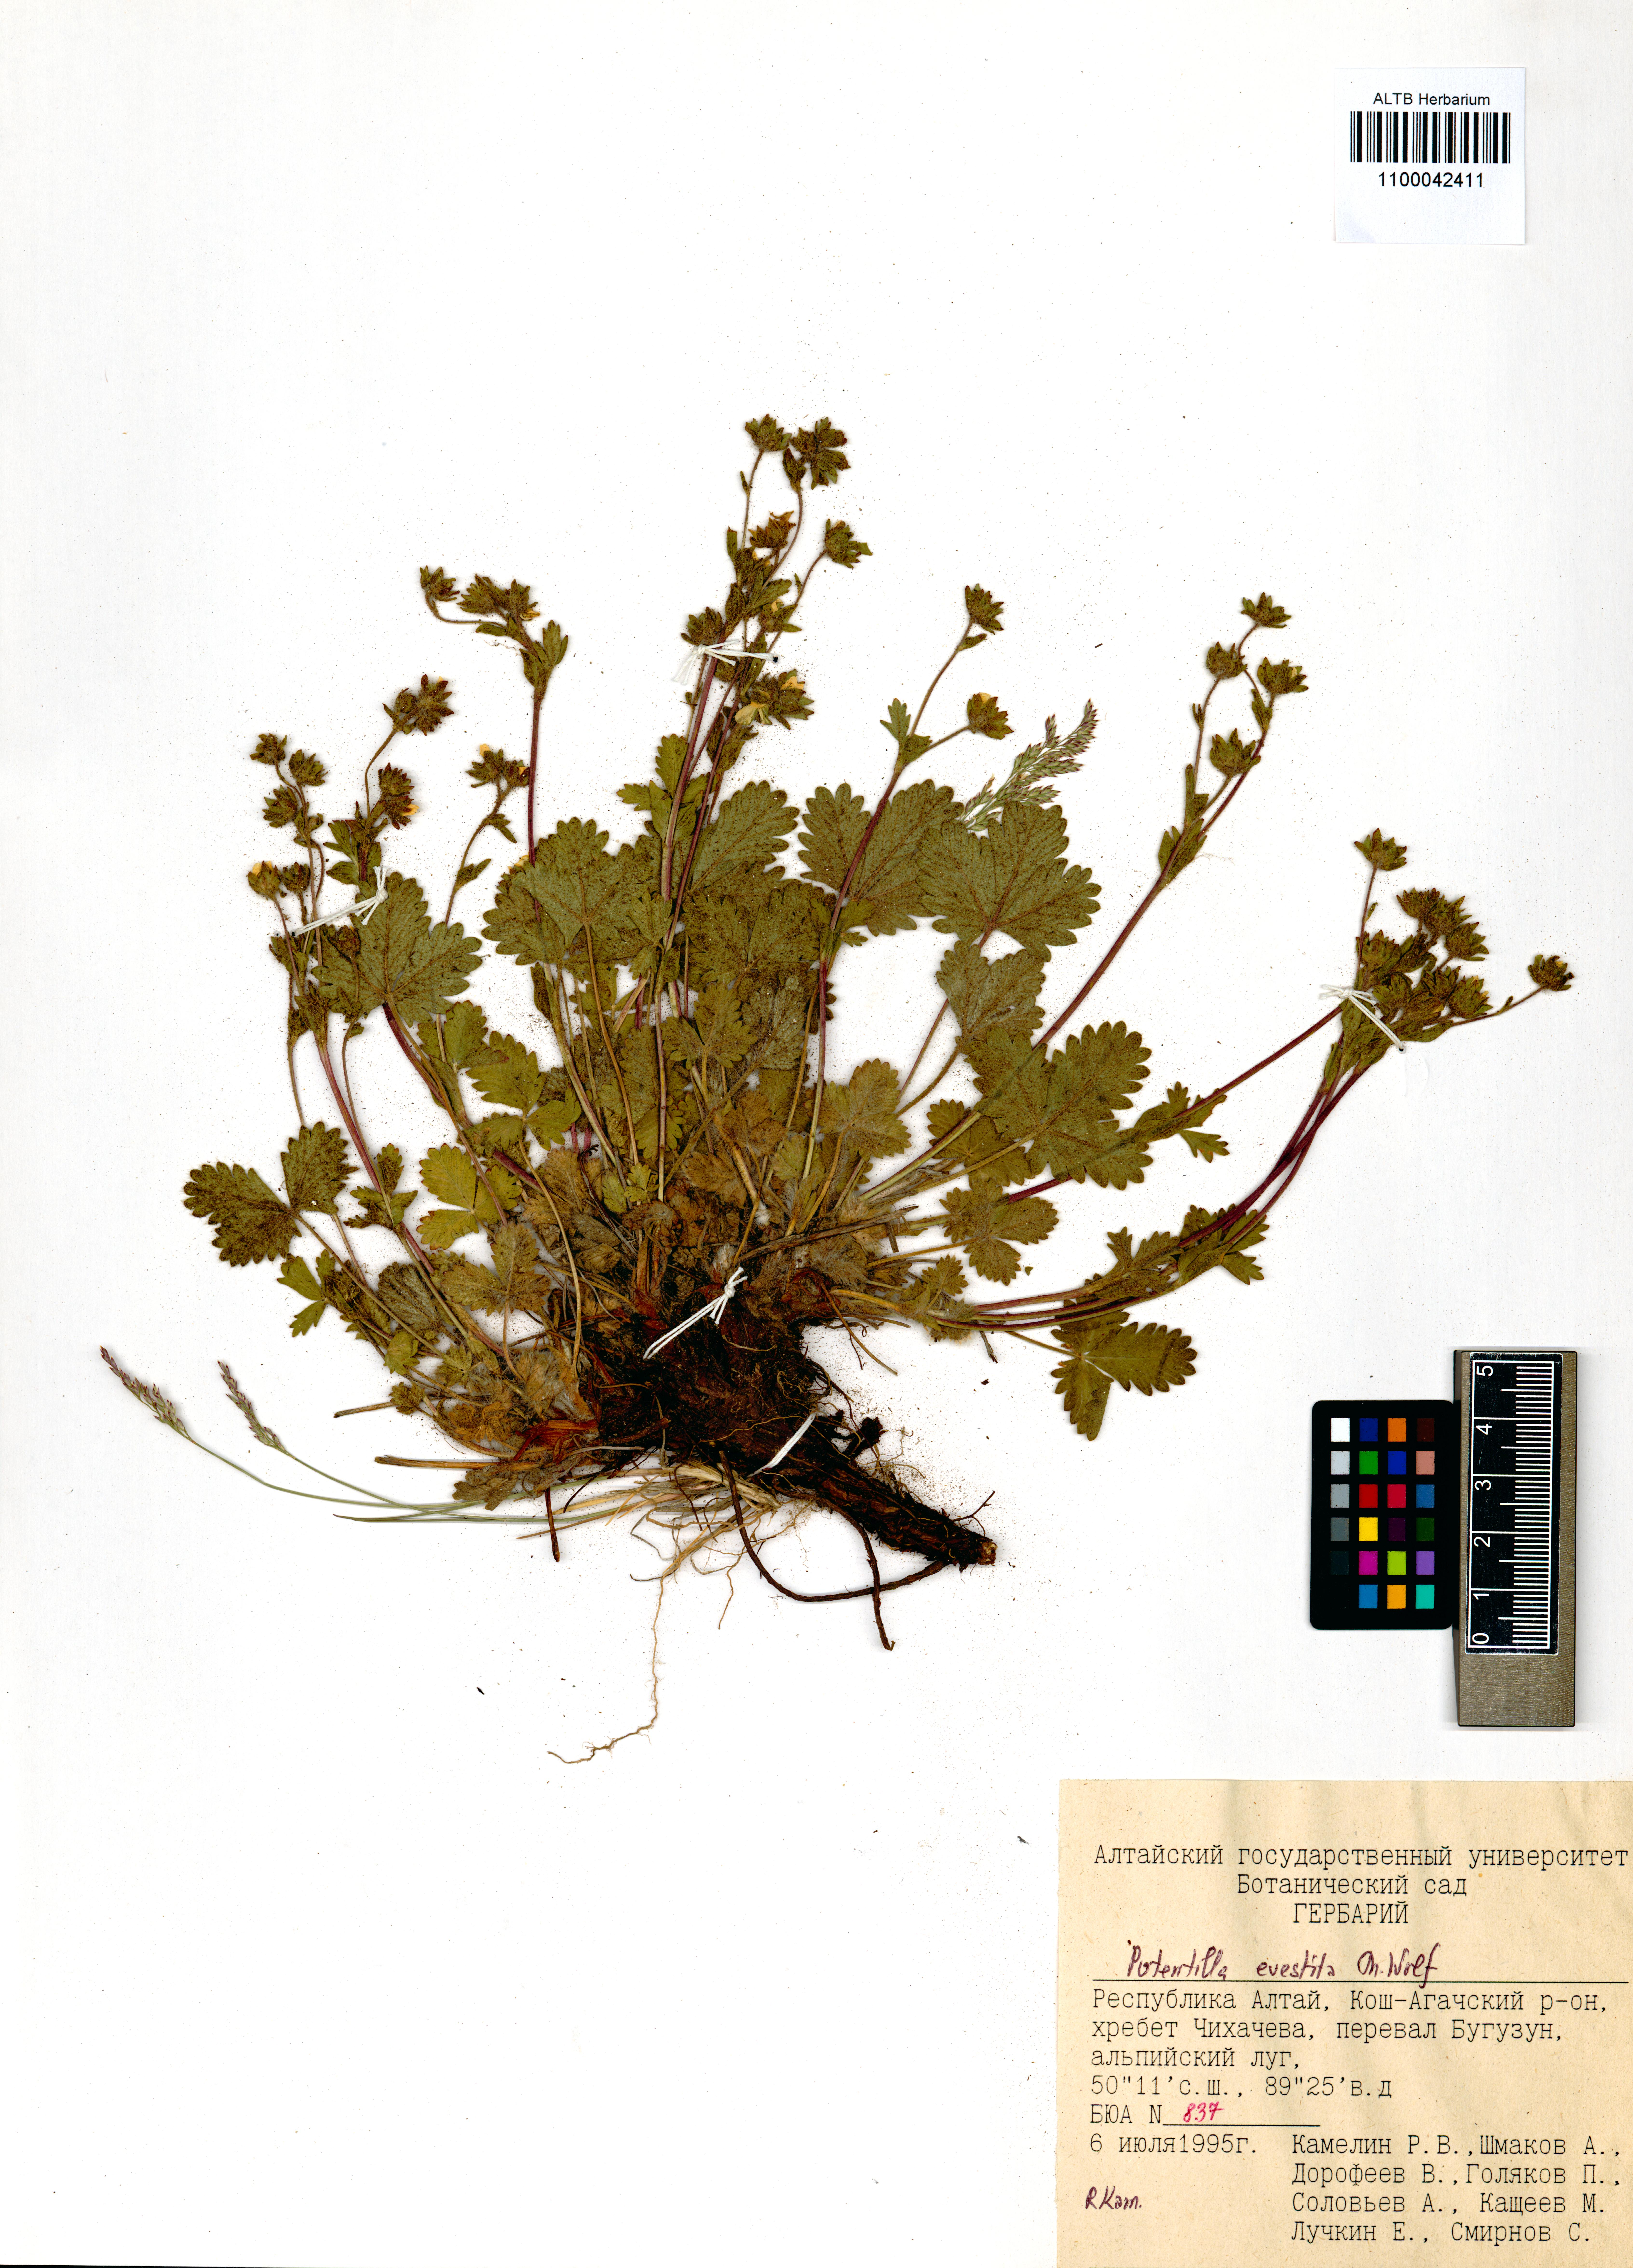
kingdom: Plantae
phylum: Tracheophyta
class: Magnoliopsida
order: Rosales
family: Rosaceae
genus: Potentilla
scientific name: Potentilla evestita
